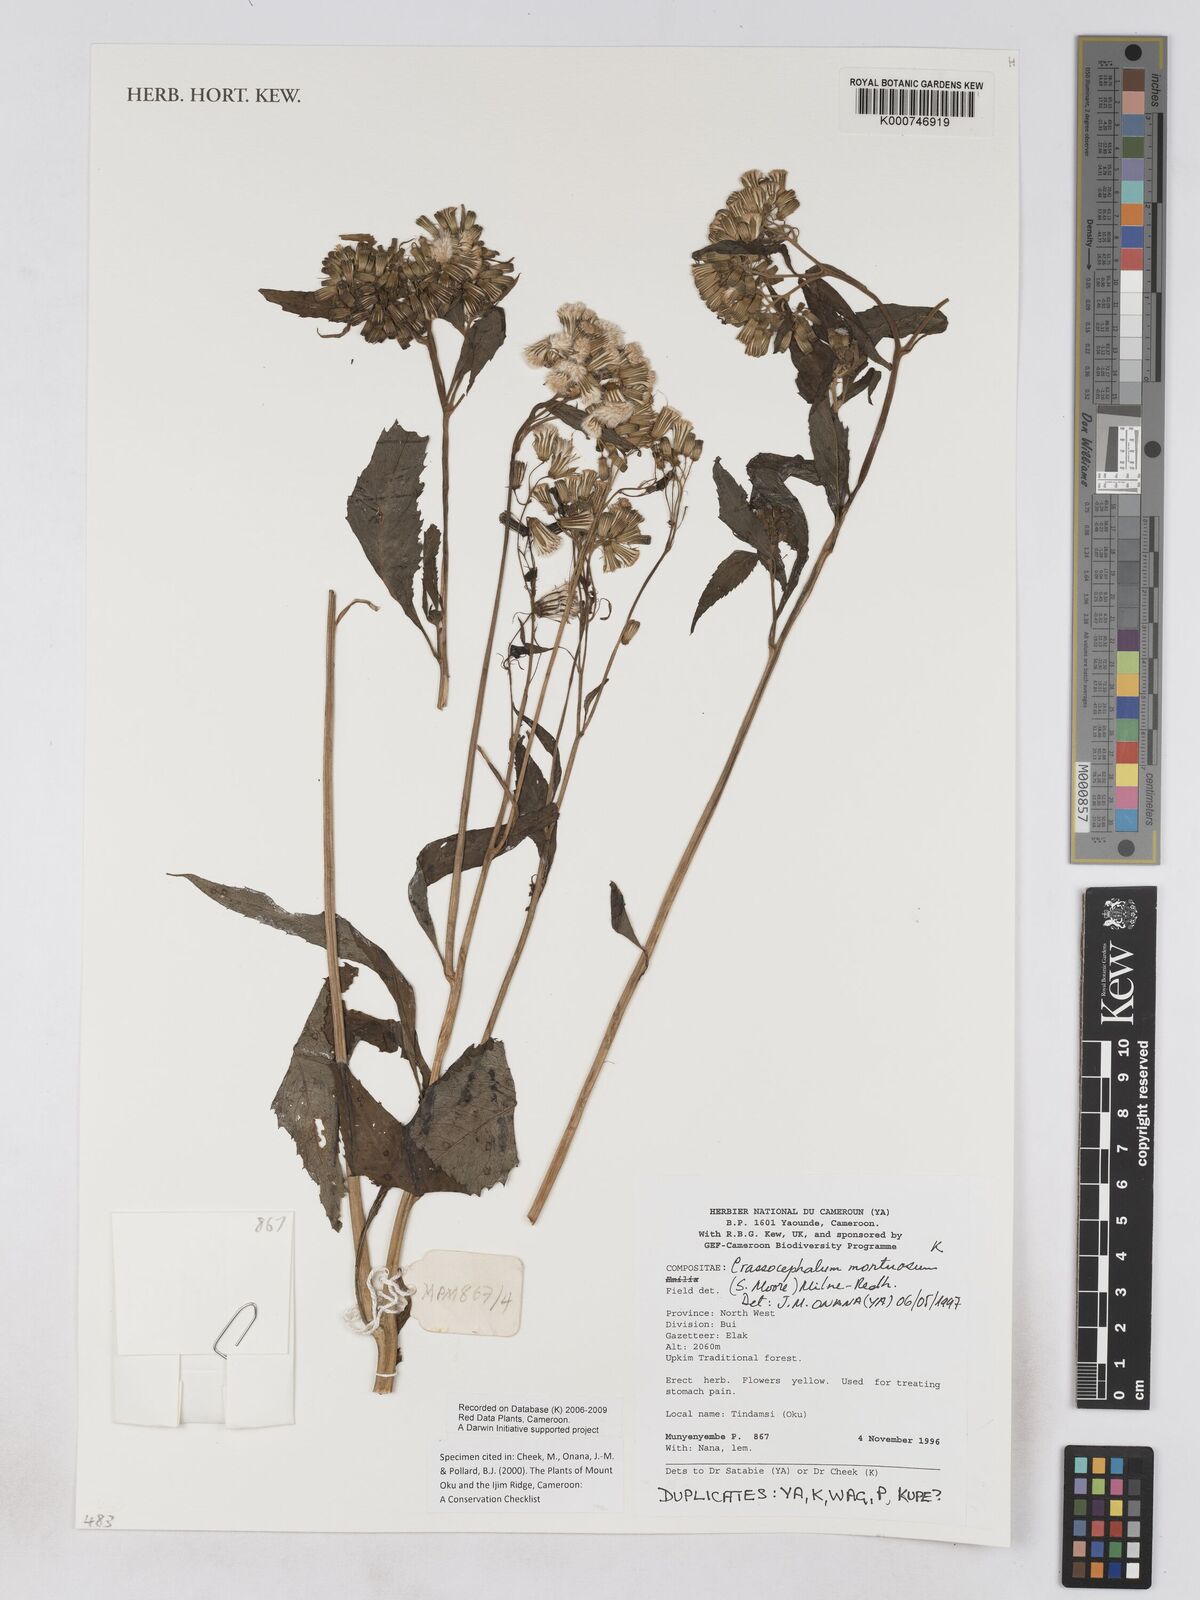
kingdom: Plantae
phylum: Tracheophyta
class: Magnoliopsida
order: Asterales
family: Asteraceae
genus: Crassocephalum
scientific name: Crassocephalum montuosum
